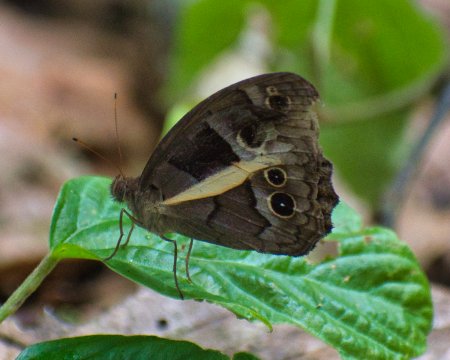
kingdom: Animalia
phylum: Arthropoda
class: Insecta
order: Lepidoptera
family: Nymphalidae
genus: Posttaygetis
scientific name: Posttaygetis penelea
